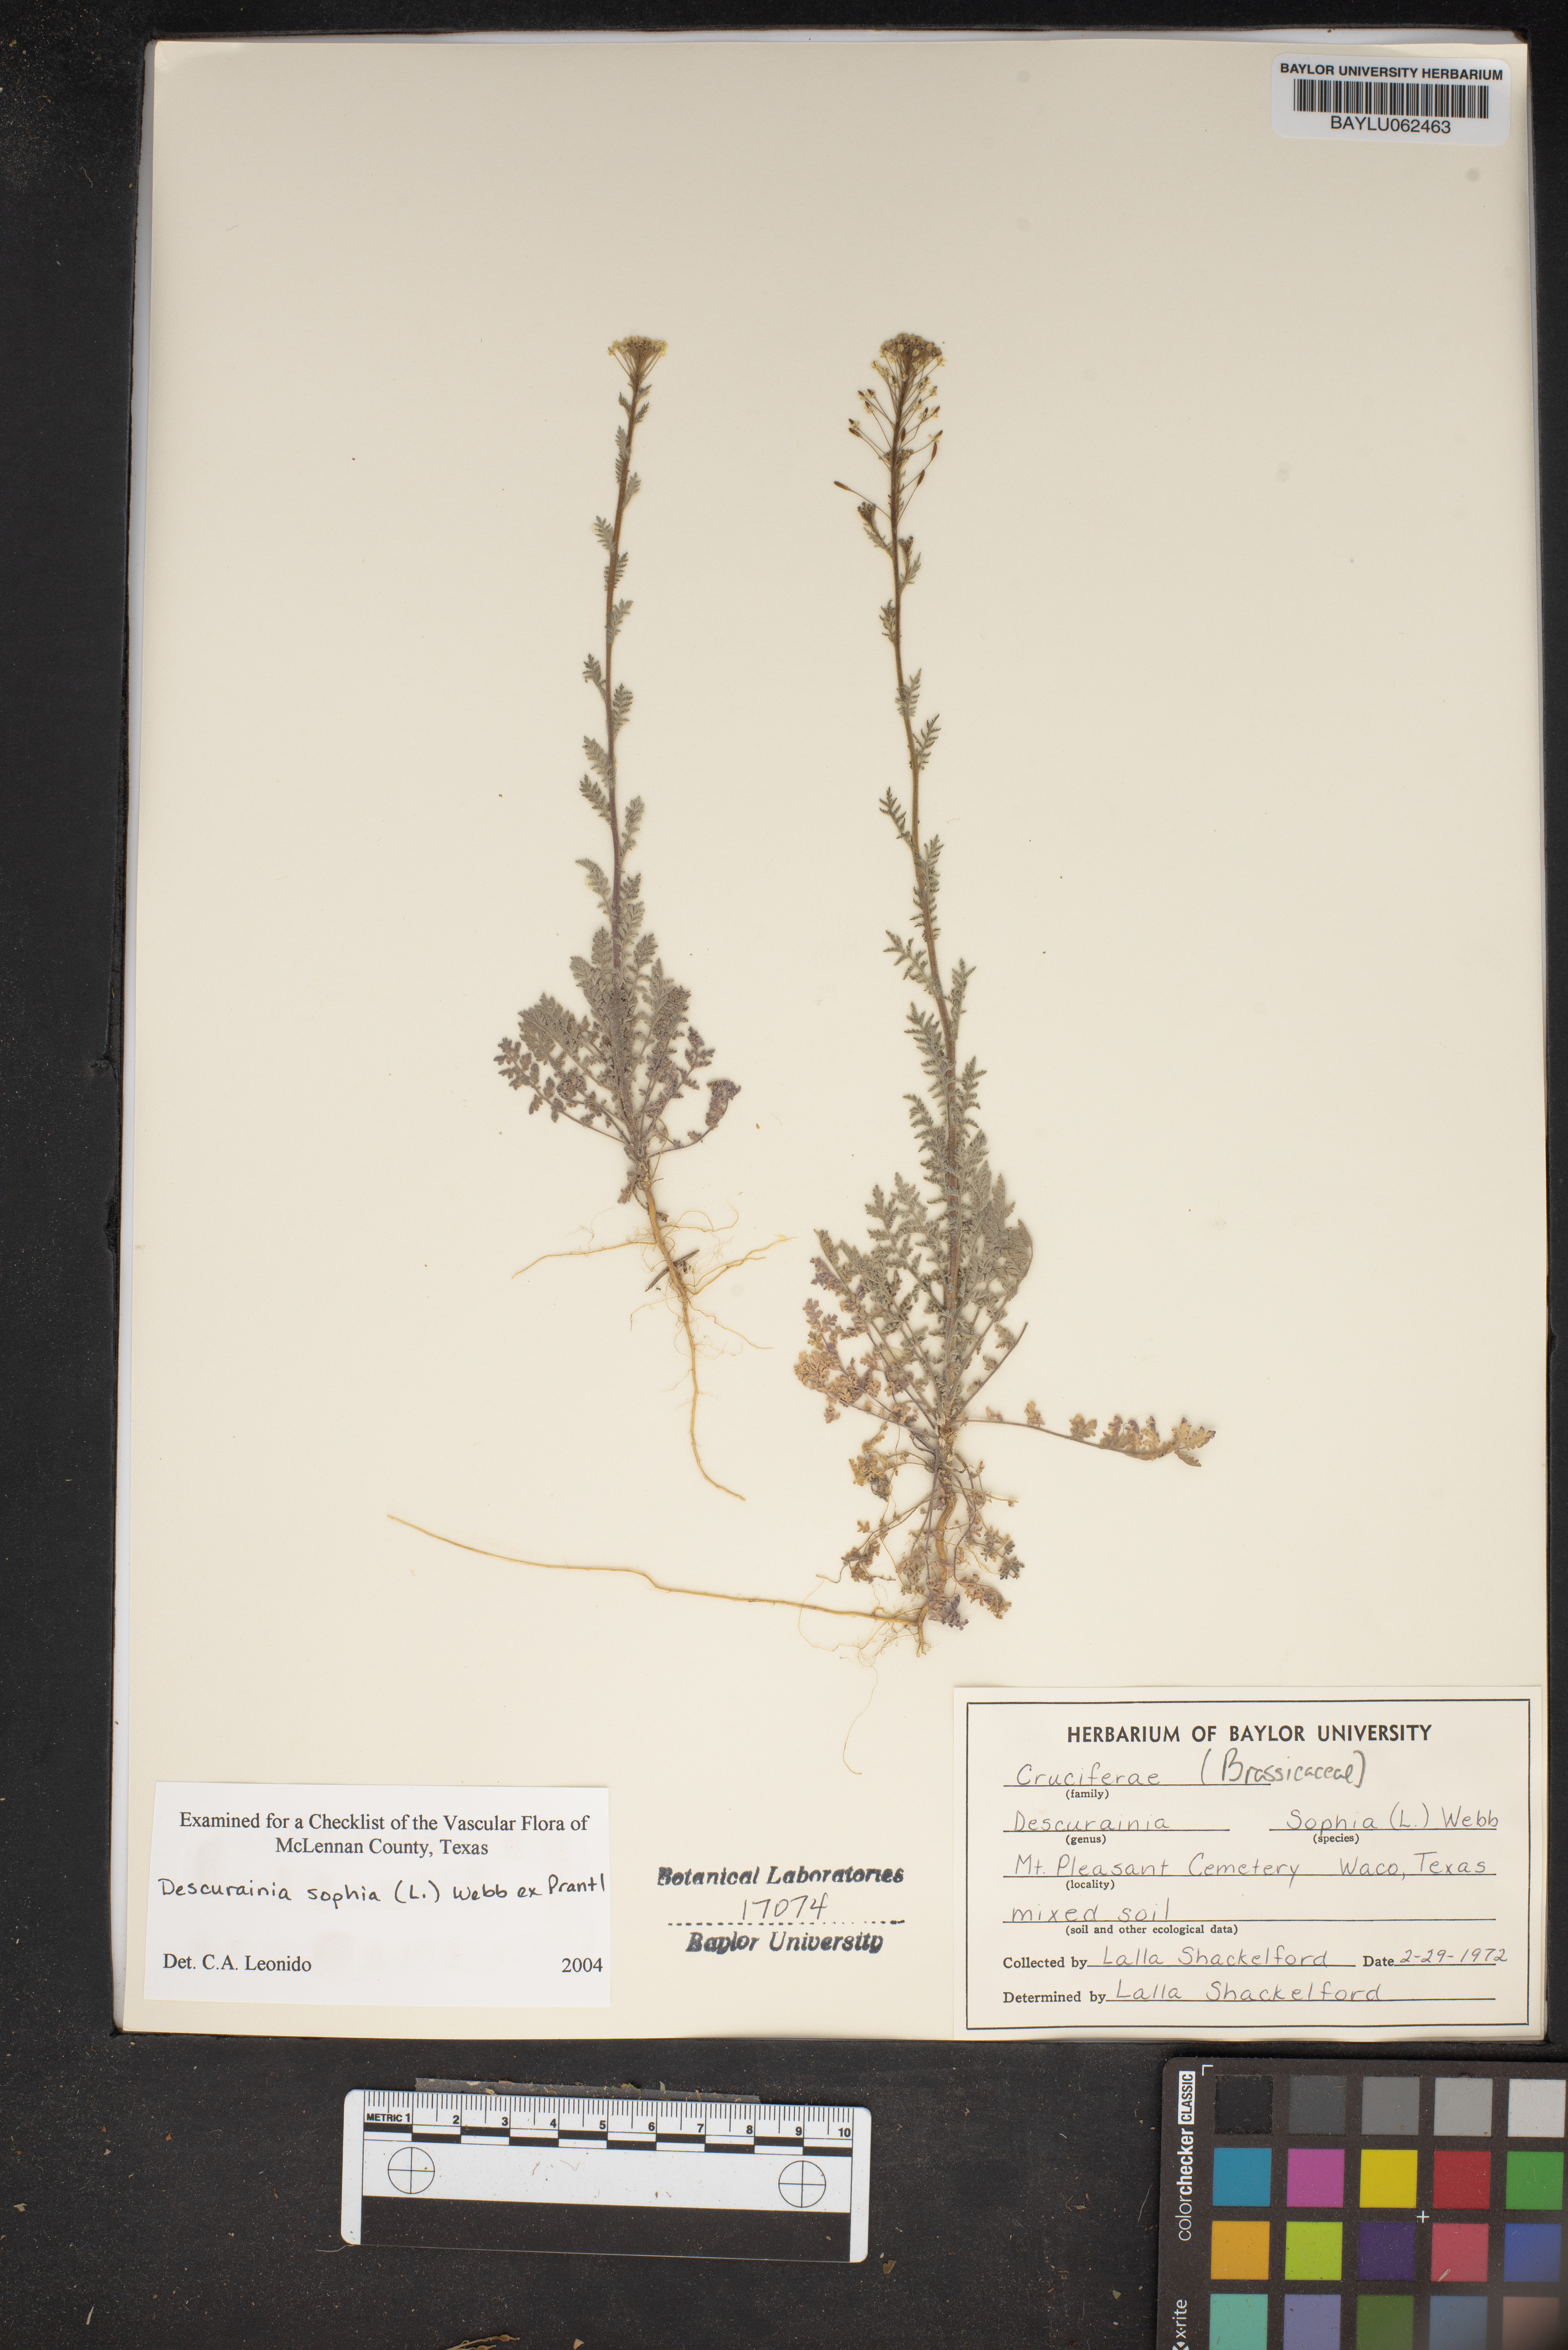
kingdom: Plantae
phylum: Tracheophyta
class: Magnoliopsida
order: Brassicales
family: Brassicaceae
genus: Descurainia
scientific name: Descurainia sophia
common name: Flixweed
